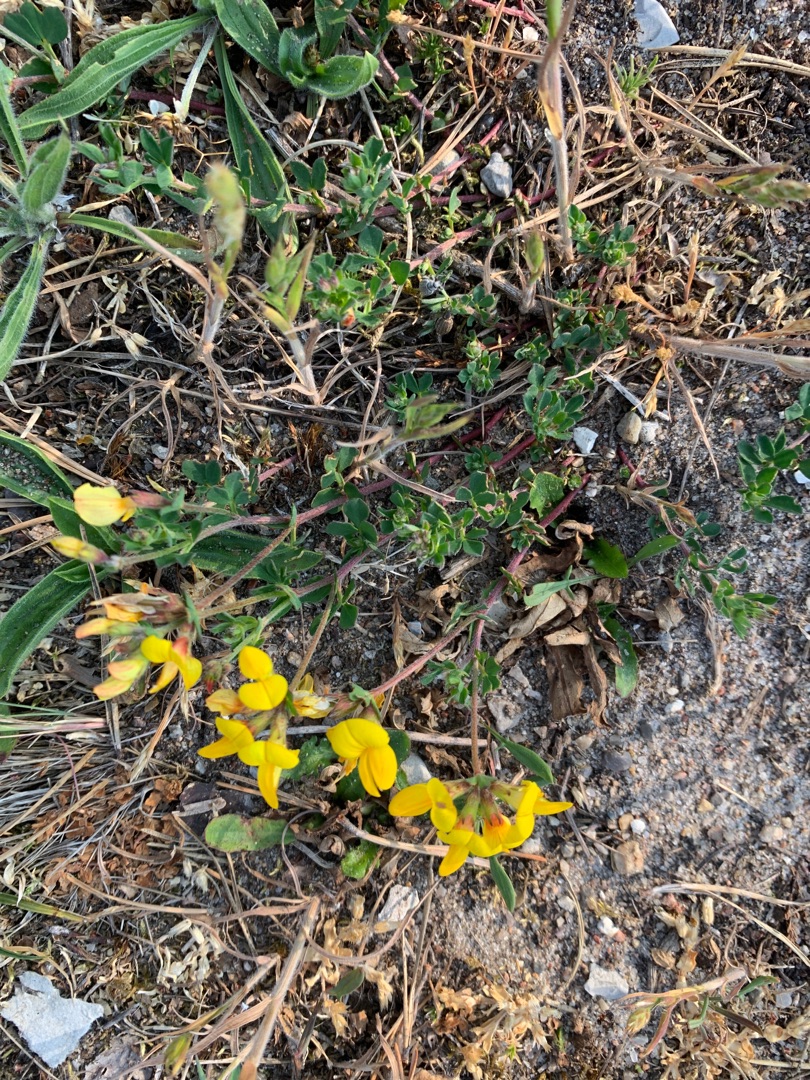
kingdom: Plantae
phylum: Tracheophyta
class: Magnoliopsida
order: Fabales
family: Fabaceae
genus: Lotus
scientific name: Lotus corniculatus
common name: Almindelig kællingetand
